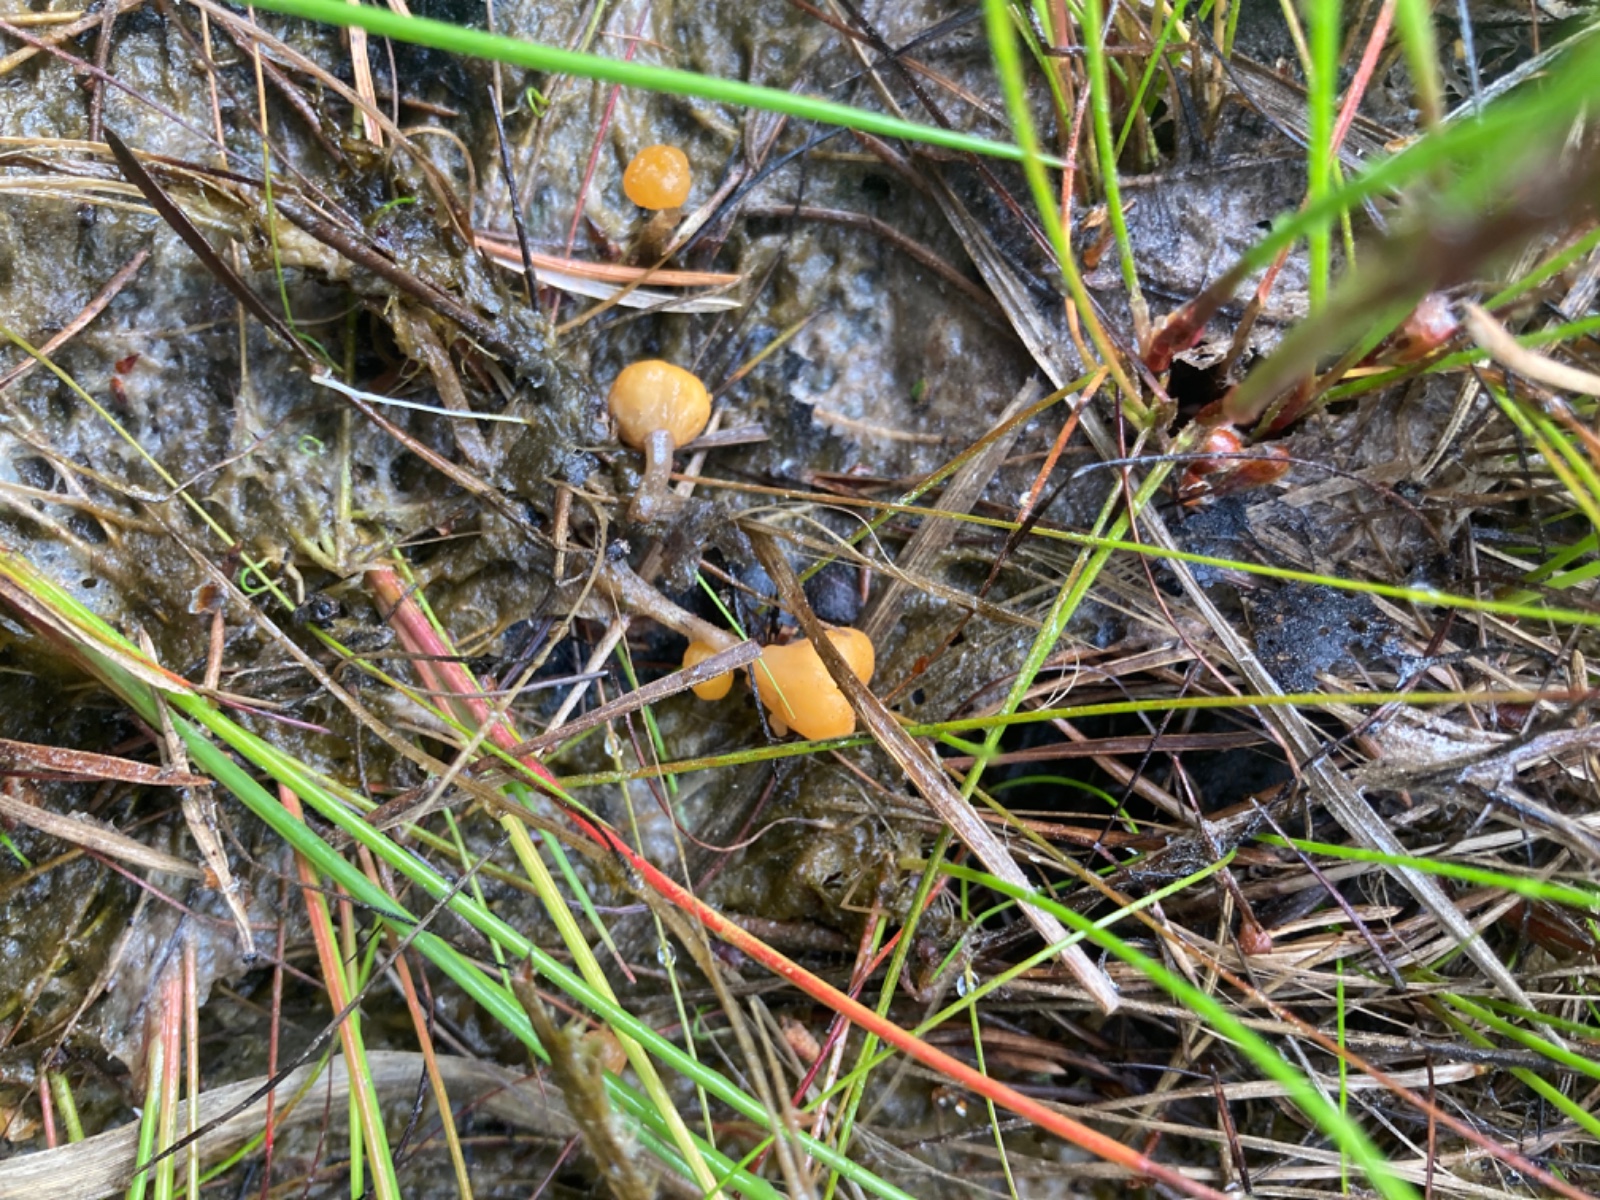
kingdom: Fungi
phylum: Ascomycota
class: Leotiomycetes
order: Helotiales
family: Cenangiaceae
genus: Mitrula
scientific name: Mitrula paludosa
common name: gul nøkketunge
